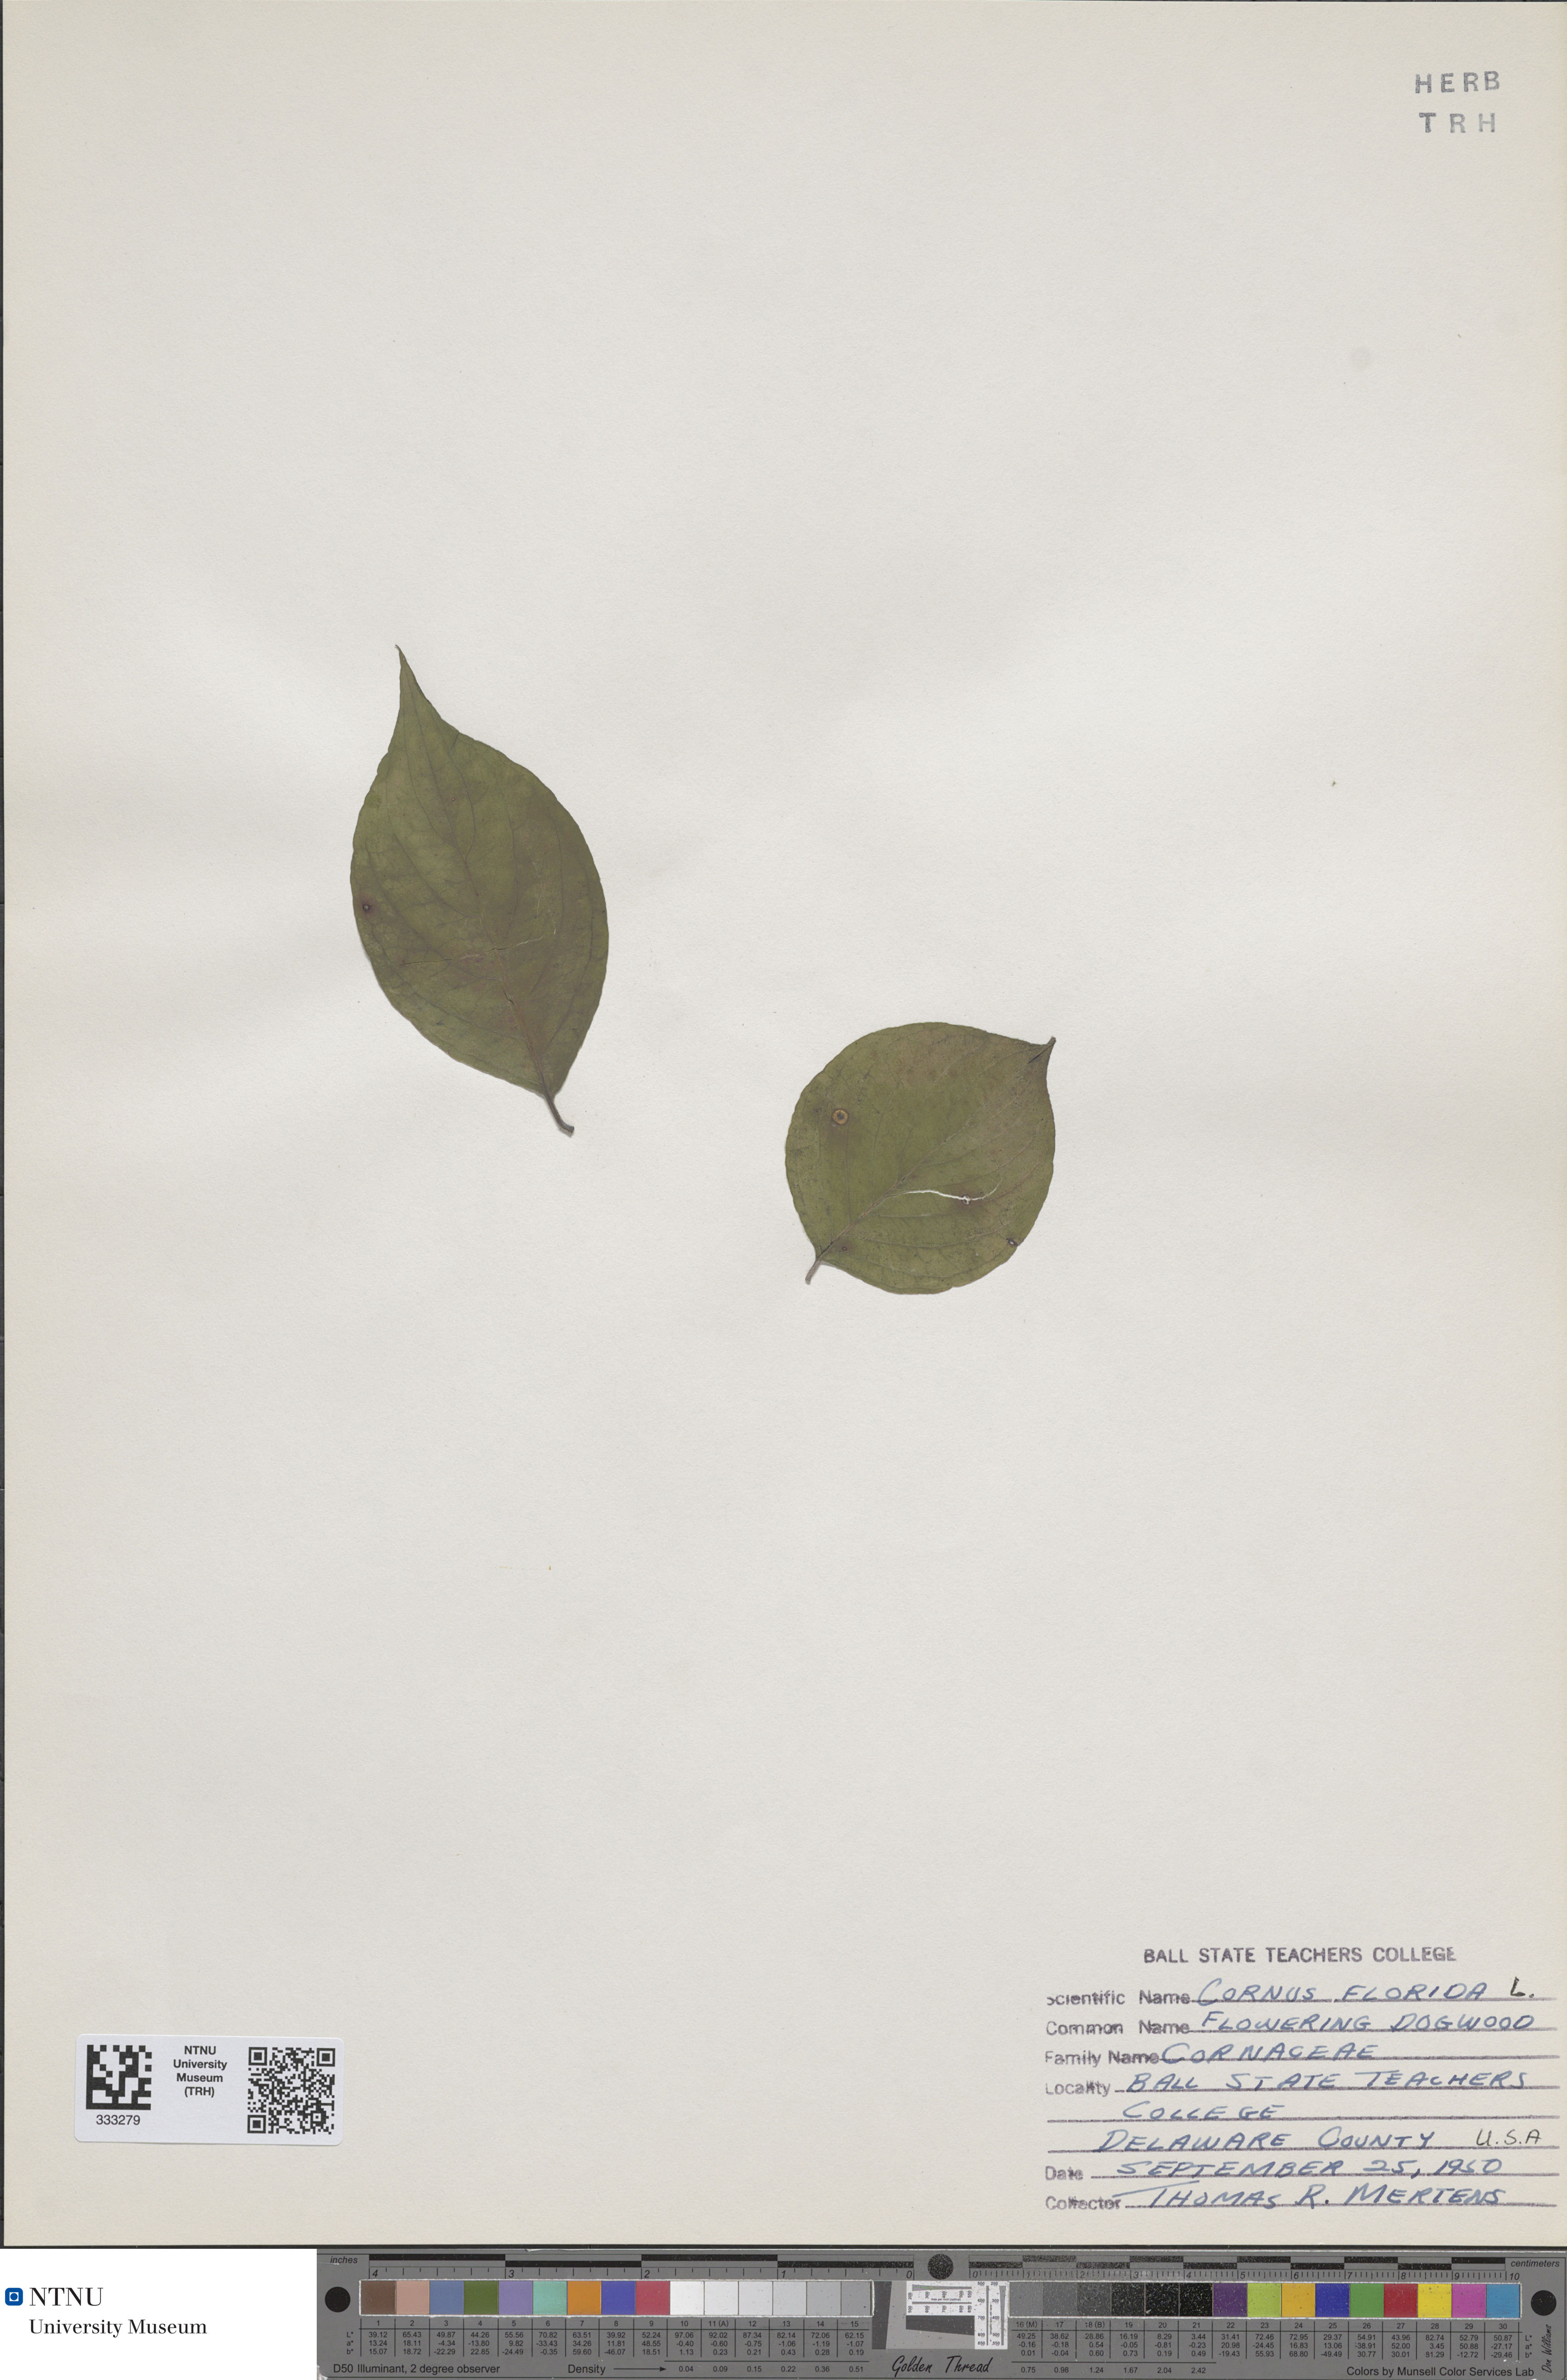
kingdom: Plantae
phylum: Tracheophyta
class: Magnoliopsida
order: Cornales
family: Cornaceae
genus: Cornus
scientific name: Cornus florida
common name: Flowering dogwood
